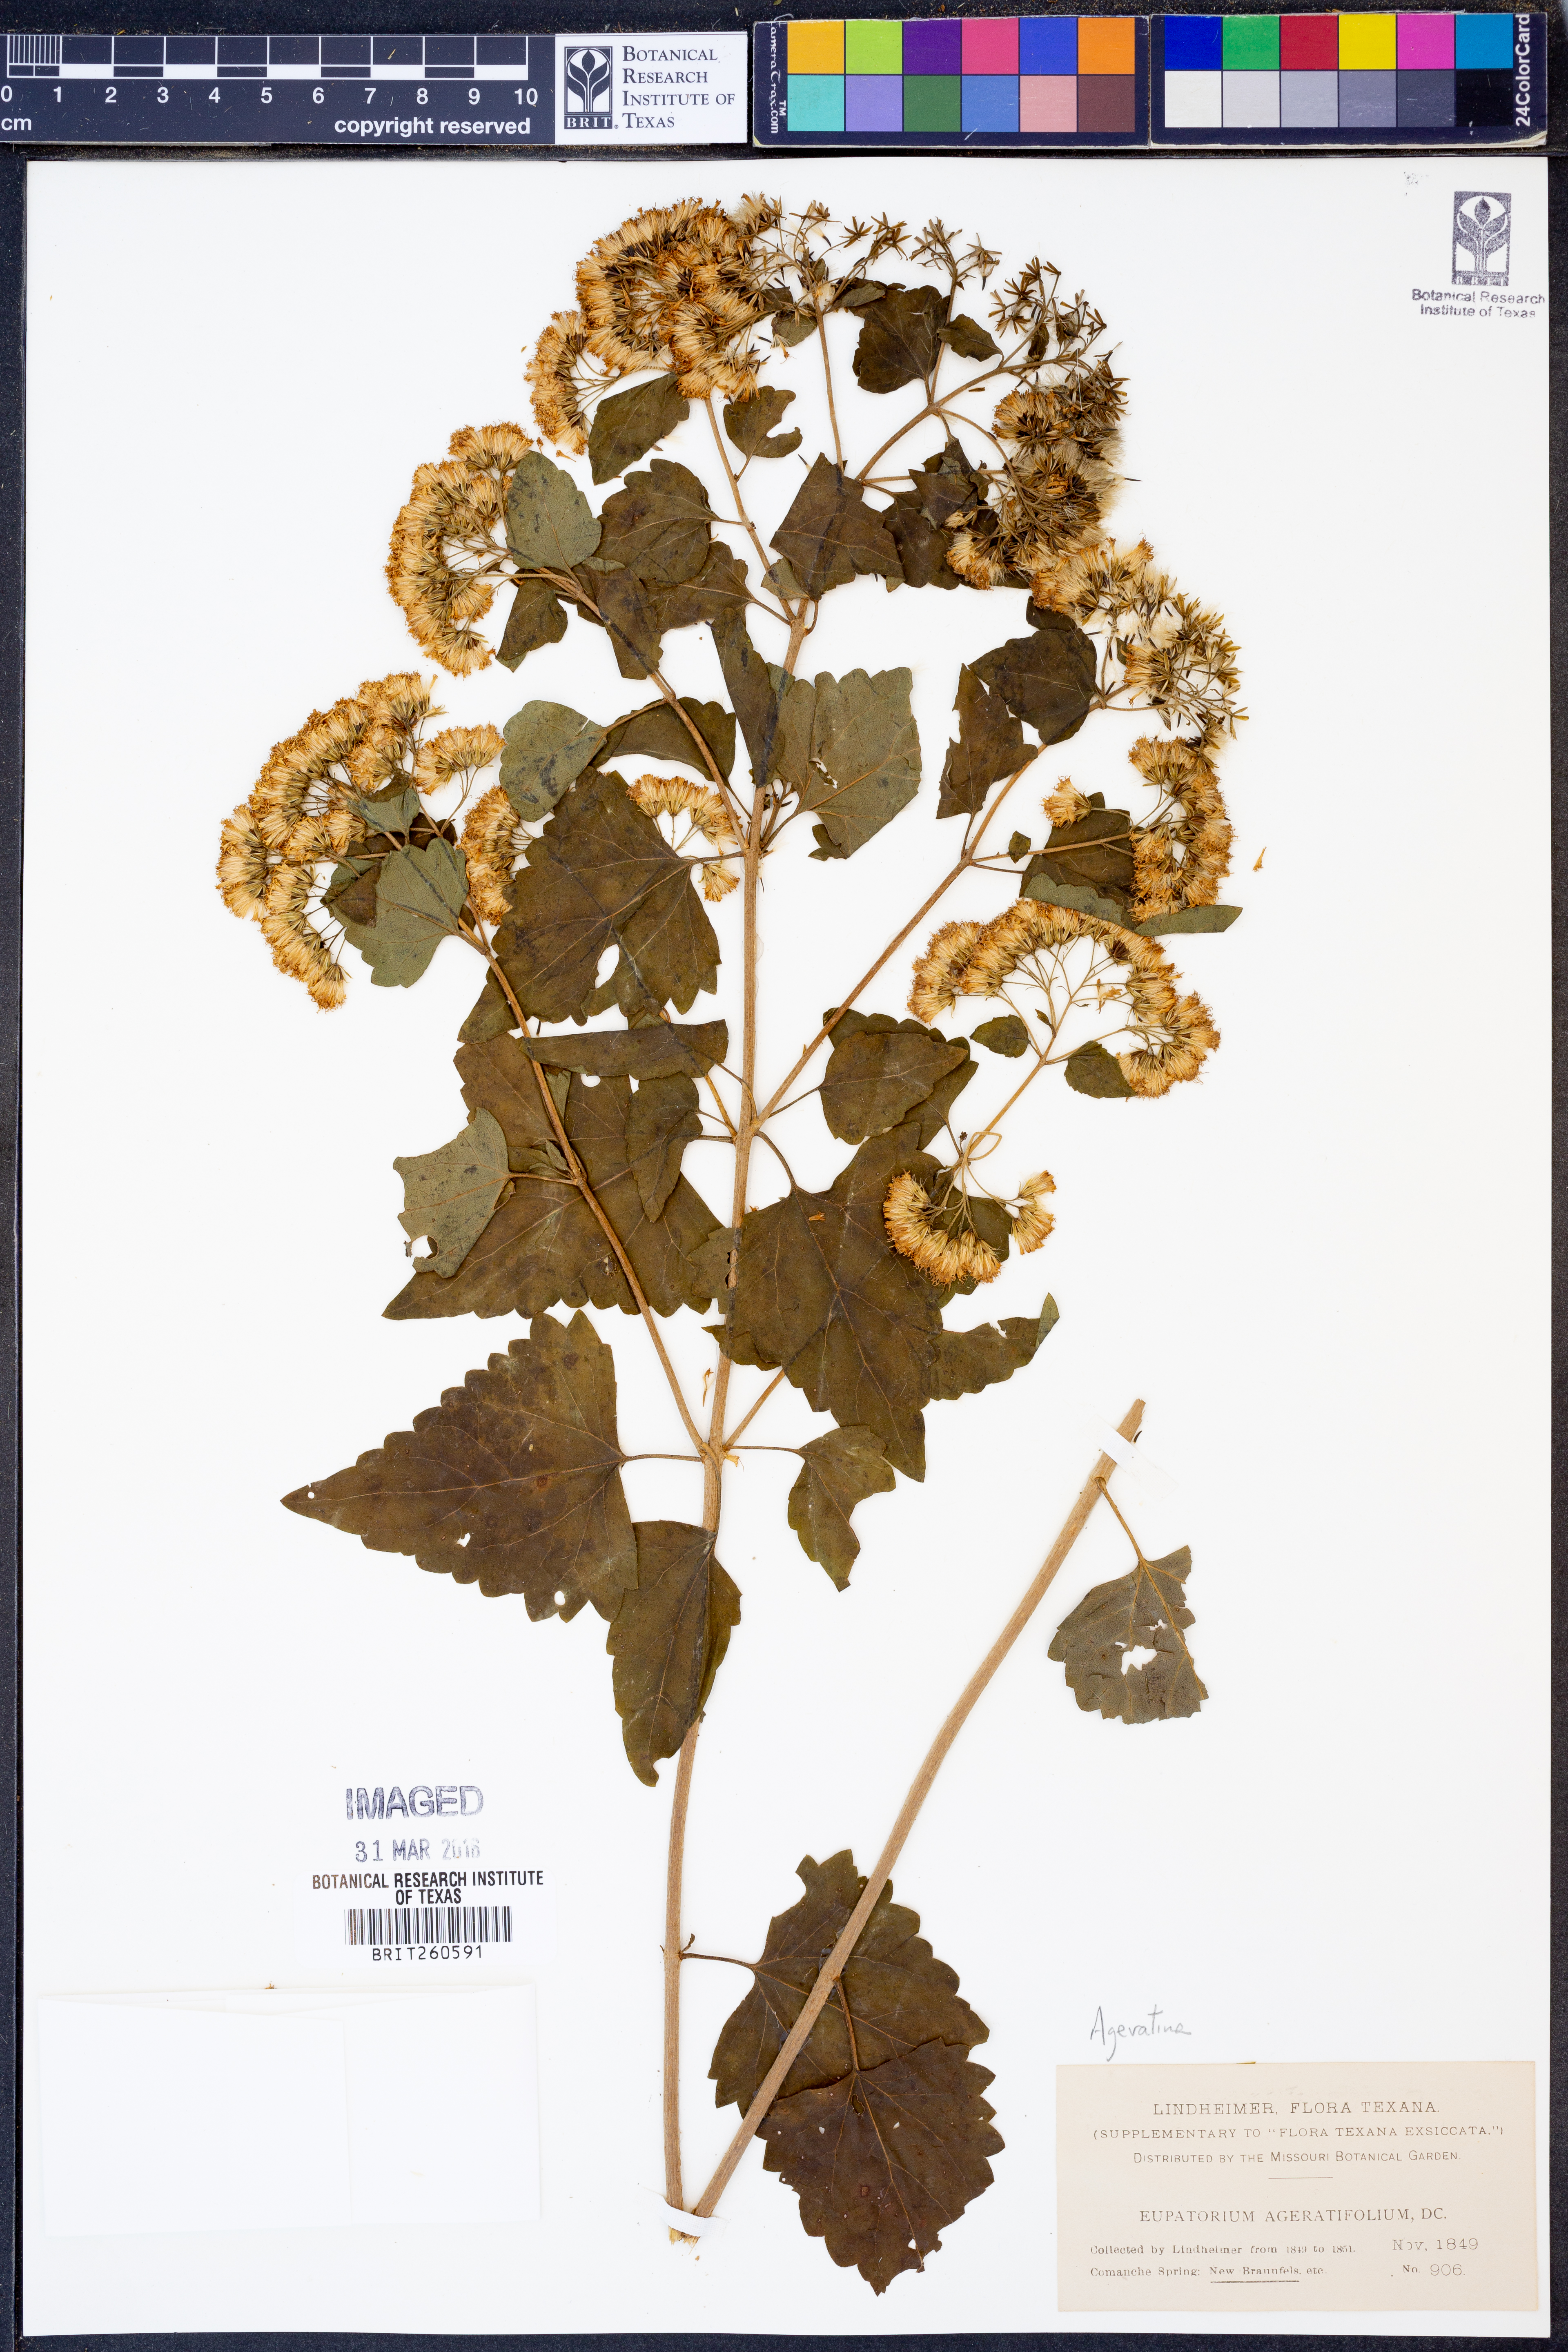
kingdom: Plantae
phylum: Tracheophyta
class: Magnoliopsida
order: Asterales
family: Asteraceae
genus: Ageratina
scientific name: Ageratina
